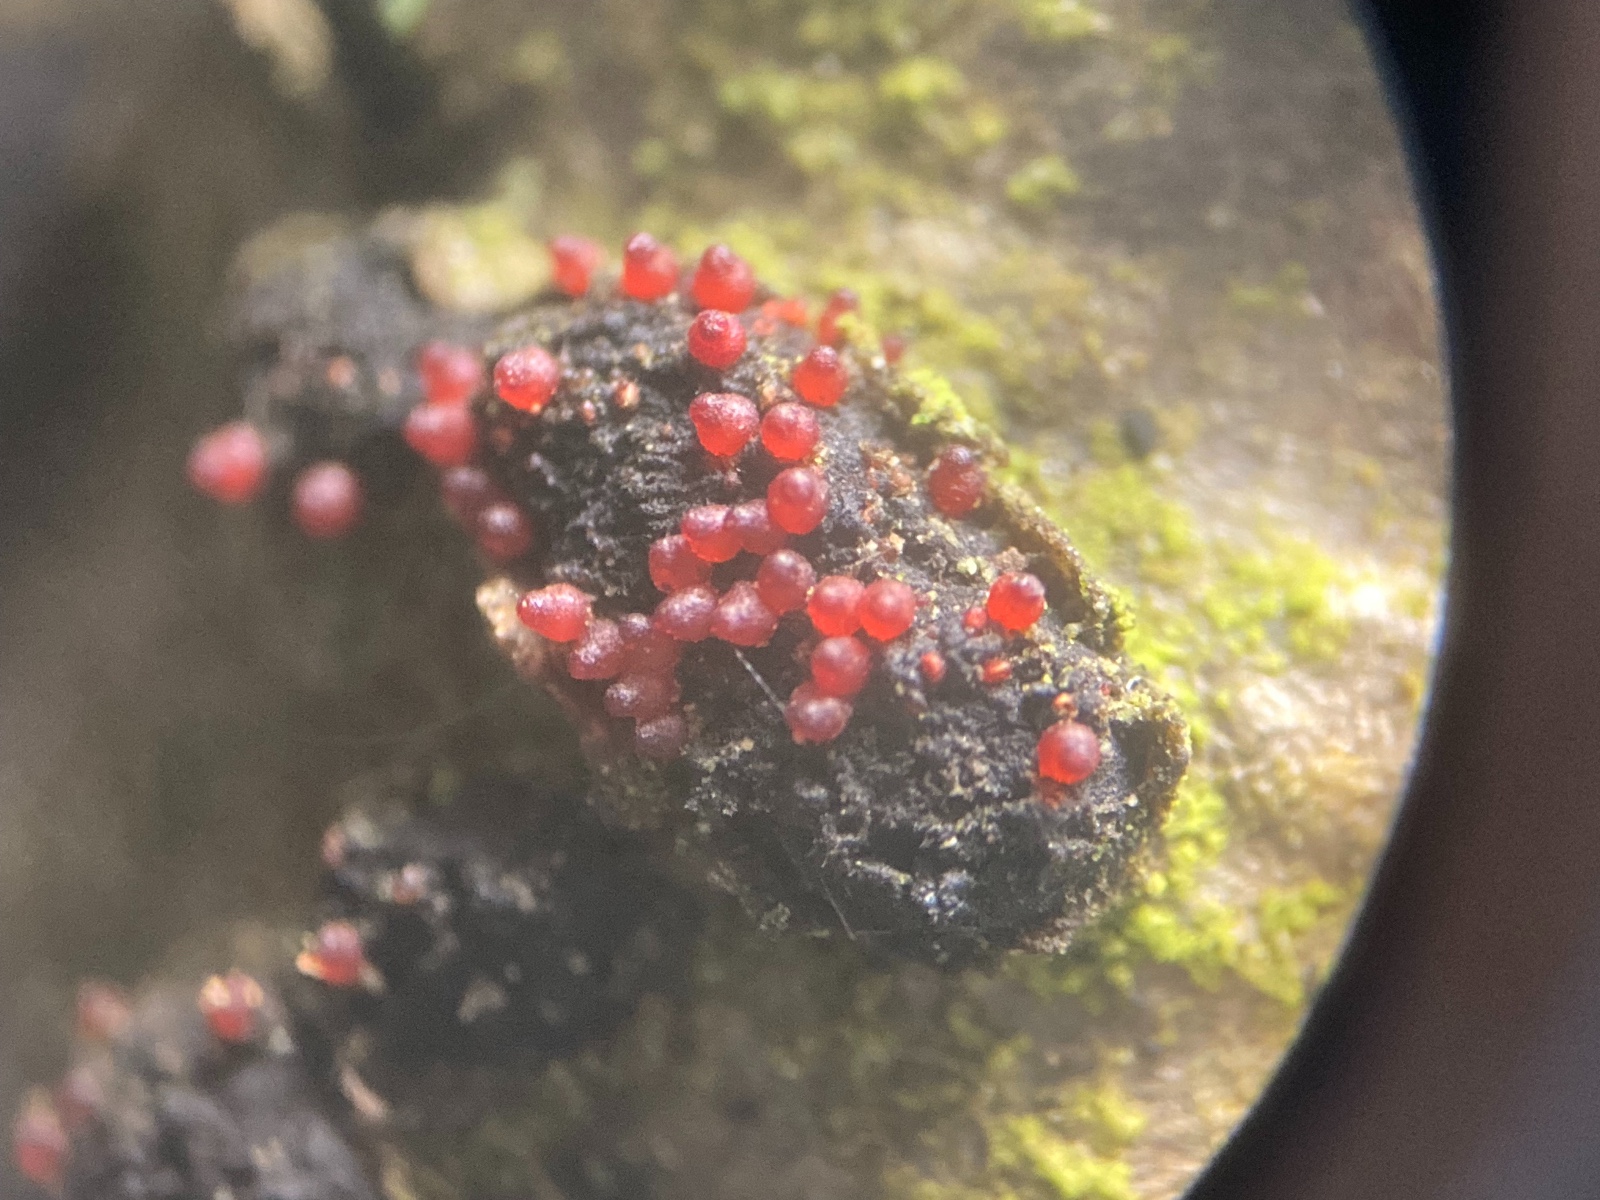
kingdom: Fungi
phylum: Ascomycota
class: Sordariomycetes
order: Hypocreales
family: Nectriaceae
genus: Dialonectria
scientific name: Dialonectria diatrypellicola
